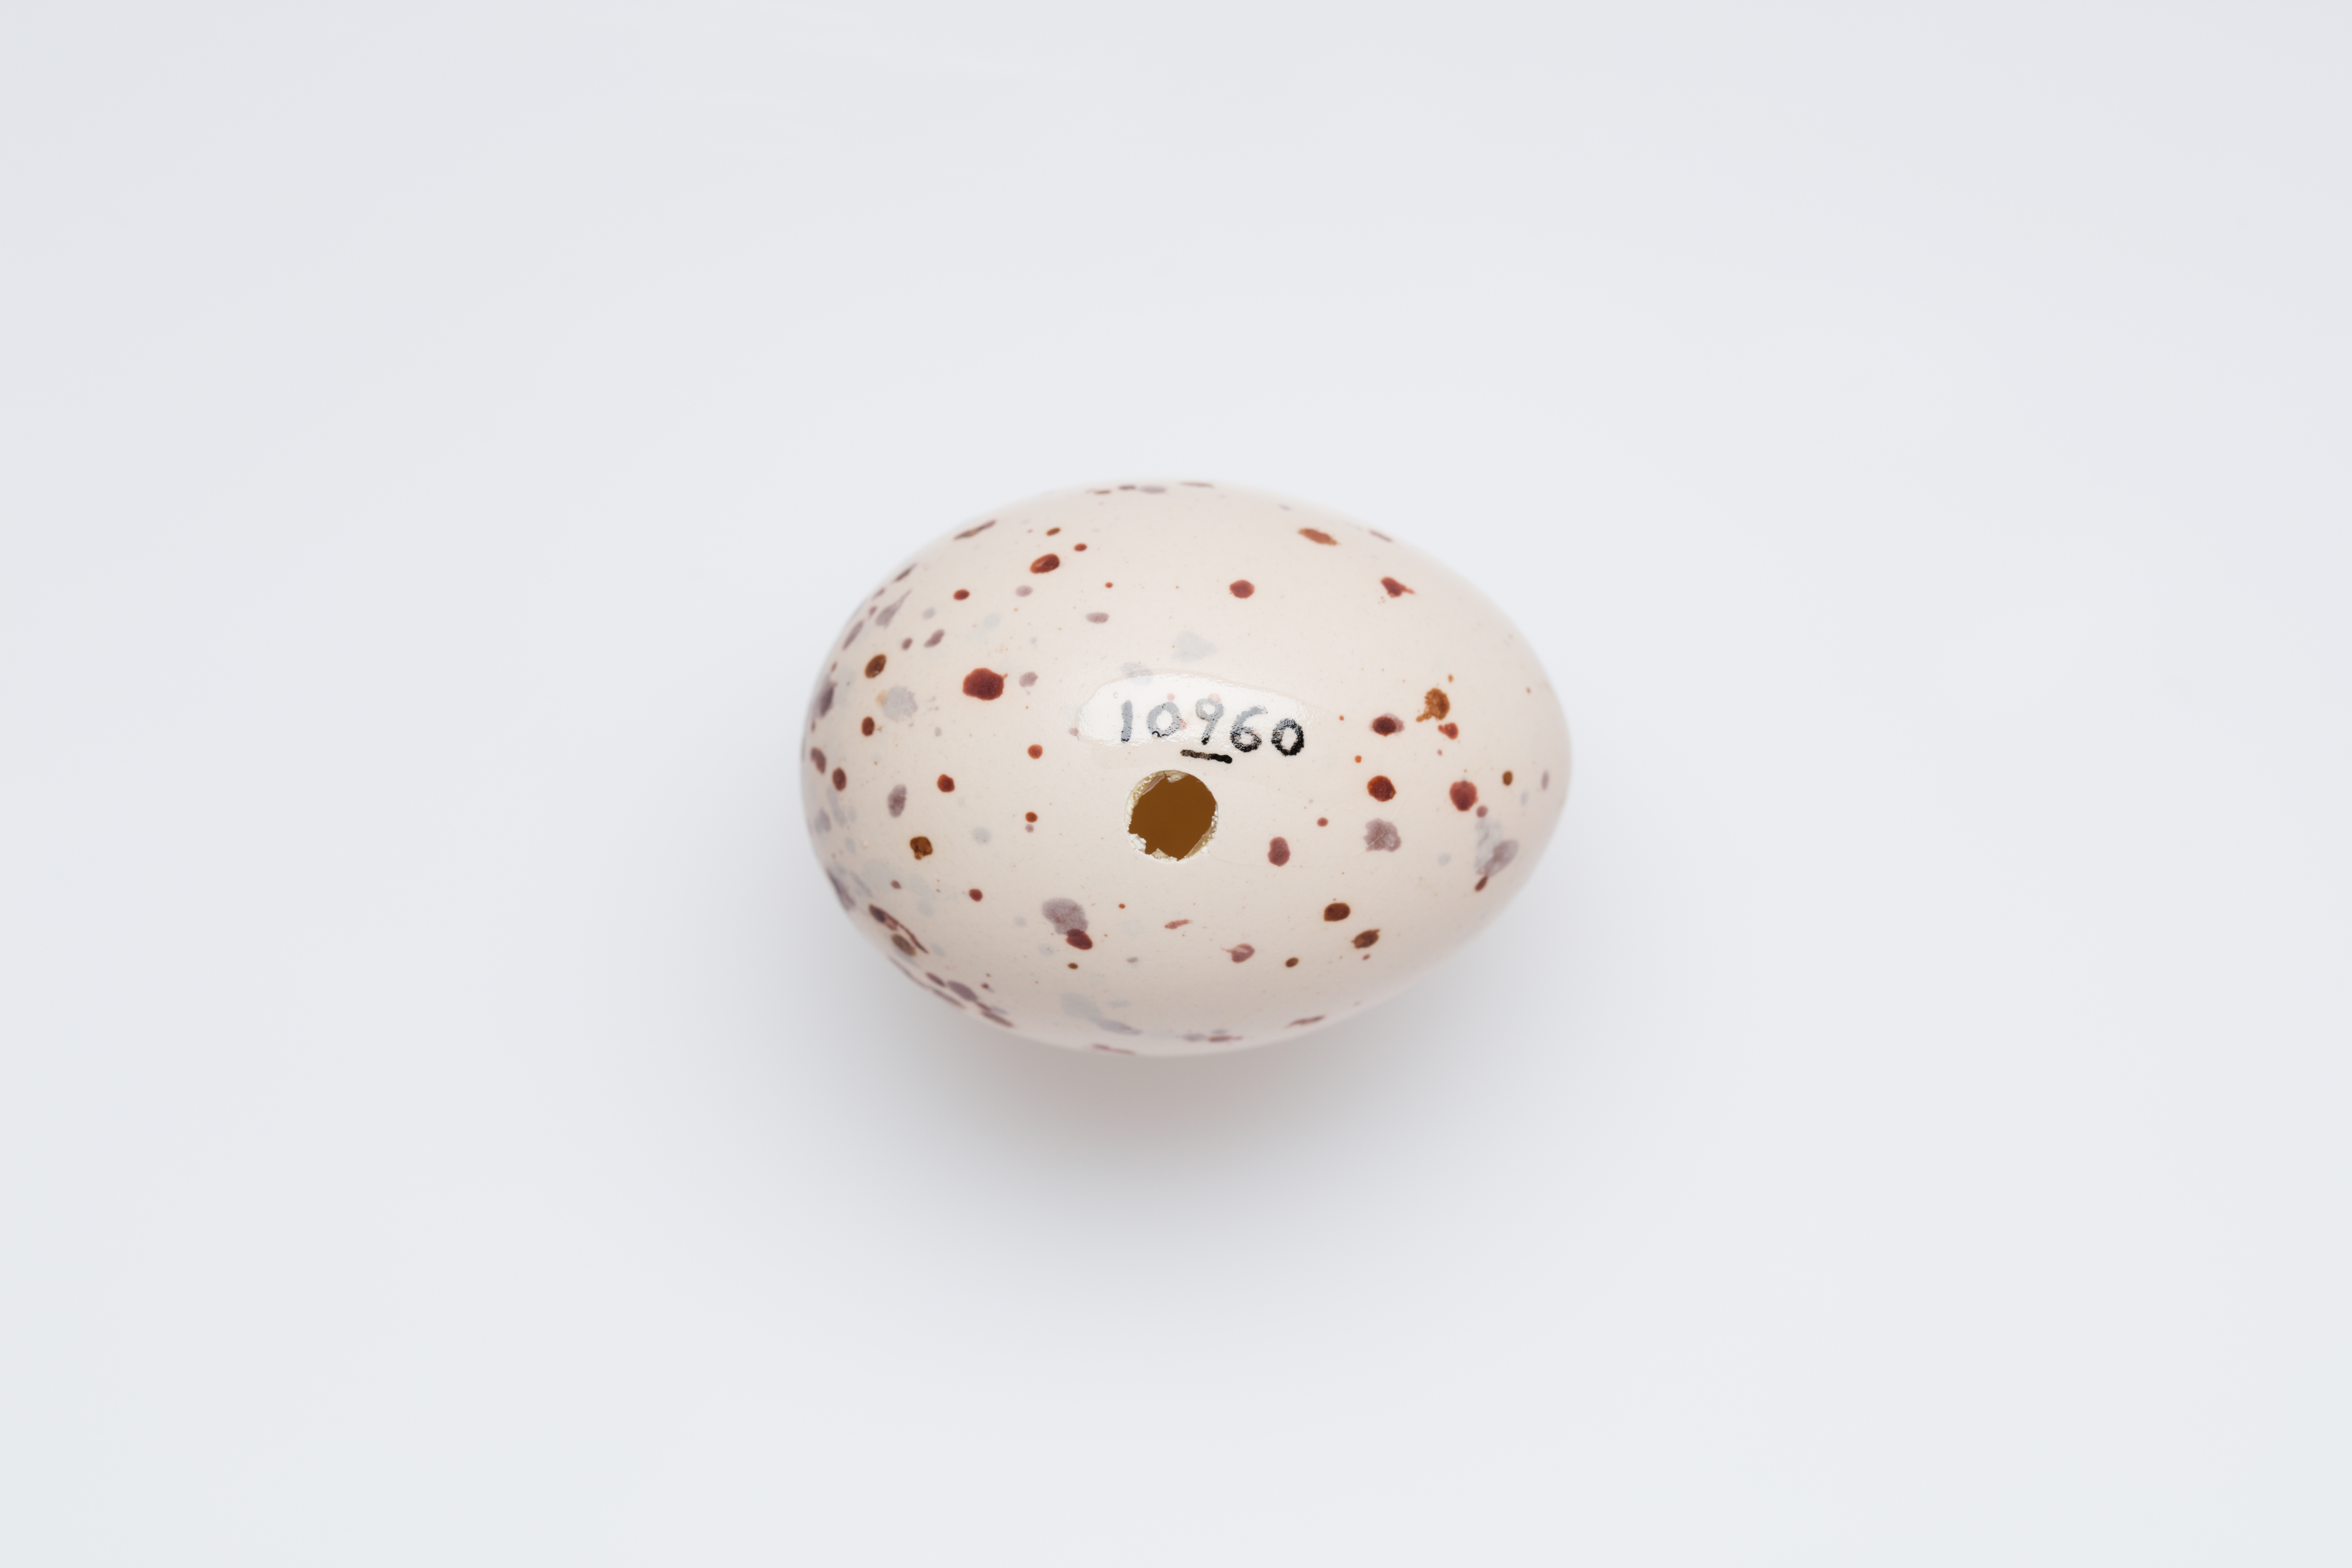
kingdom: Animalia
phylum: Chordata
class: Aves
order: Gruiformes
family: Rallidae
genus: Gallirallus
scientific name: Gallirallus philippensis
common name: Buff-banded rail
